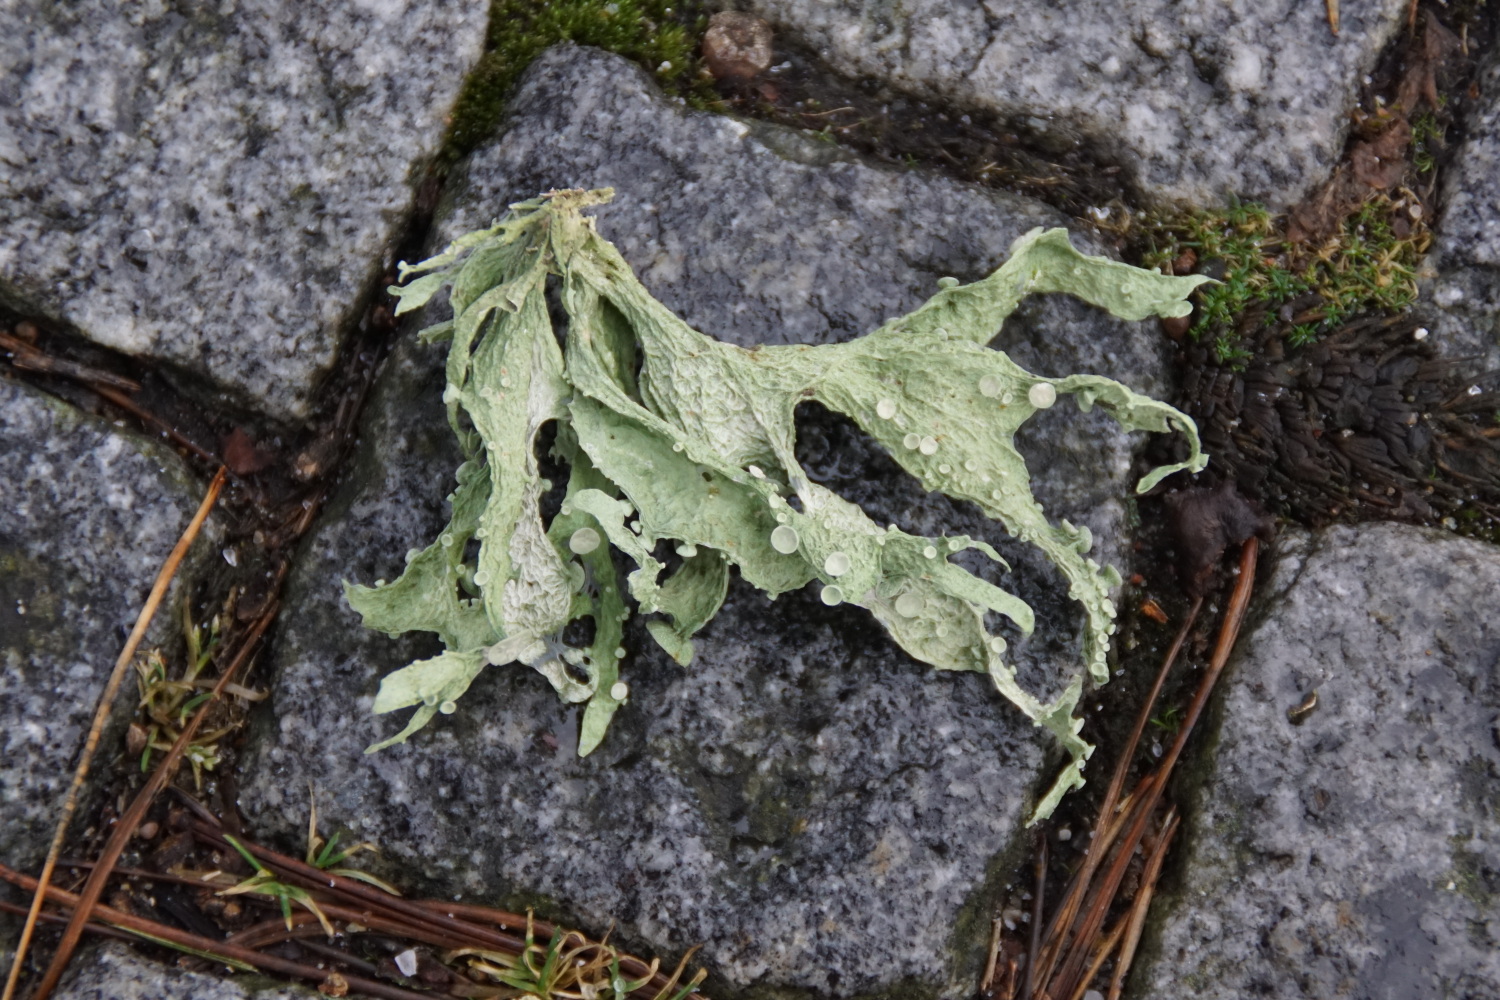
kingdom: Fungi
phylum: Ascomycota
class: Lecanoromycetes
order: Lecanorales
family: Ramalinaceae
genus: Ramalina
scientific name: Ramalina fraxinea
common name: stor grenlav
